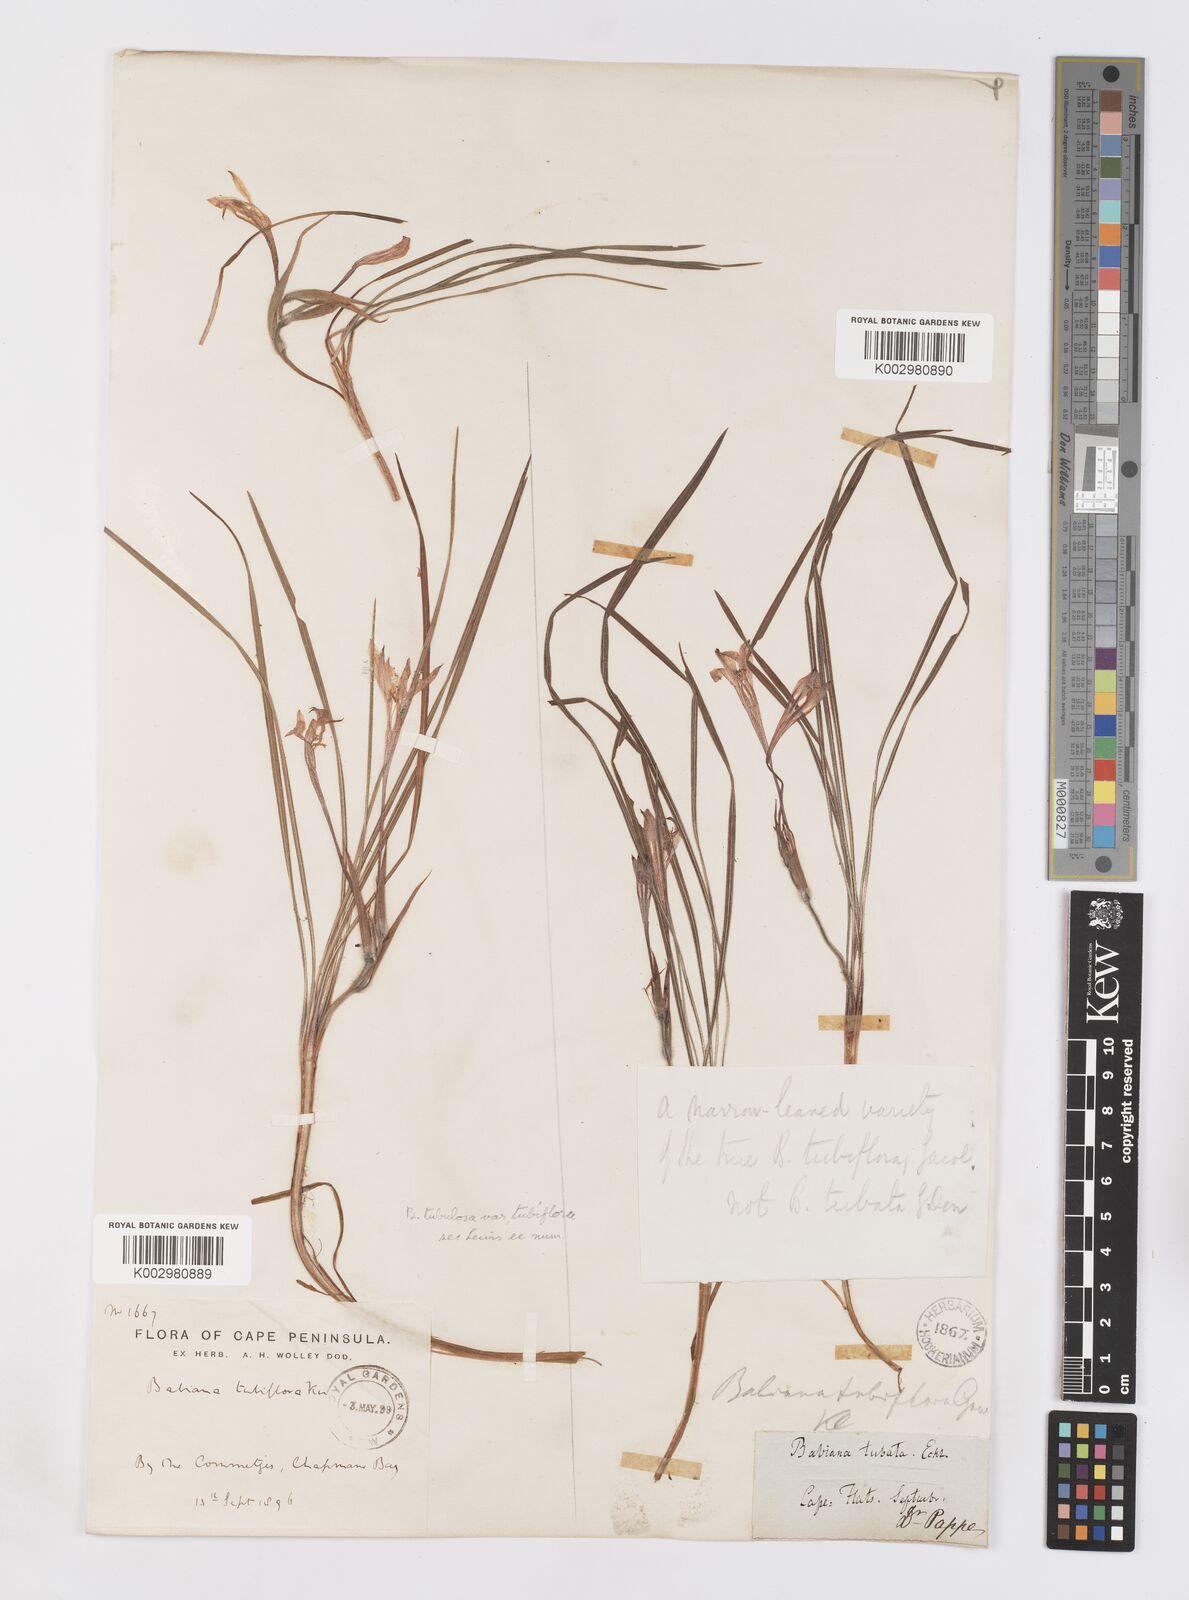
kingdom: Plantae
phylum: Tracheophyta
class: Liliopsida
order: Asparagales
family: Iridaceae
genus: Babiana
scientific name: Babiana tubiflora
